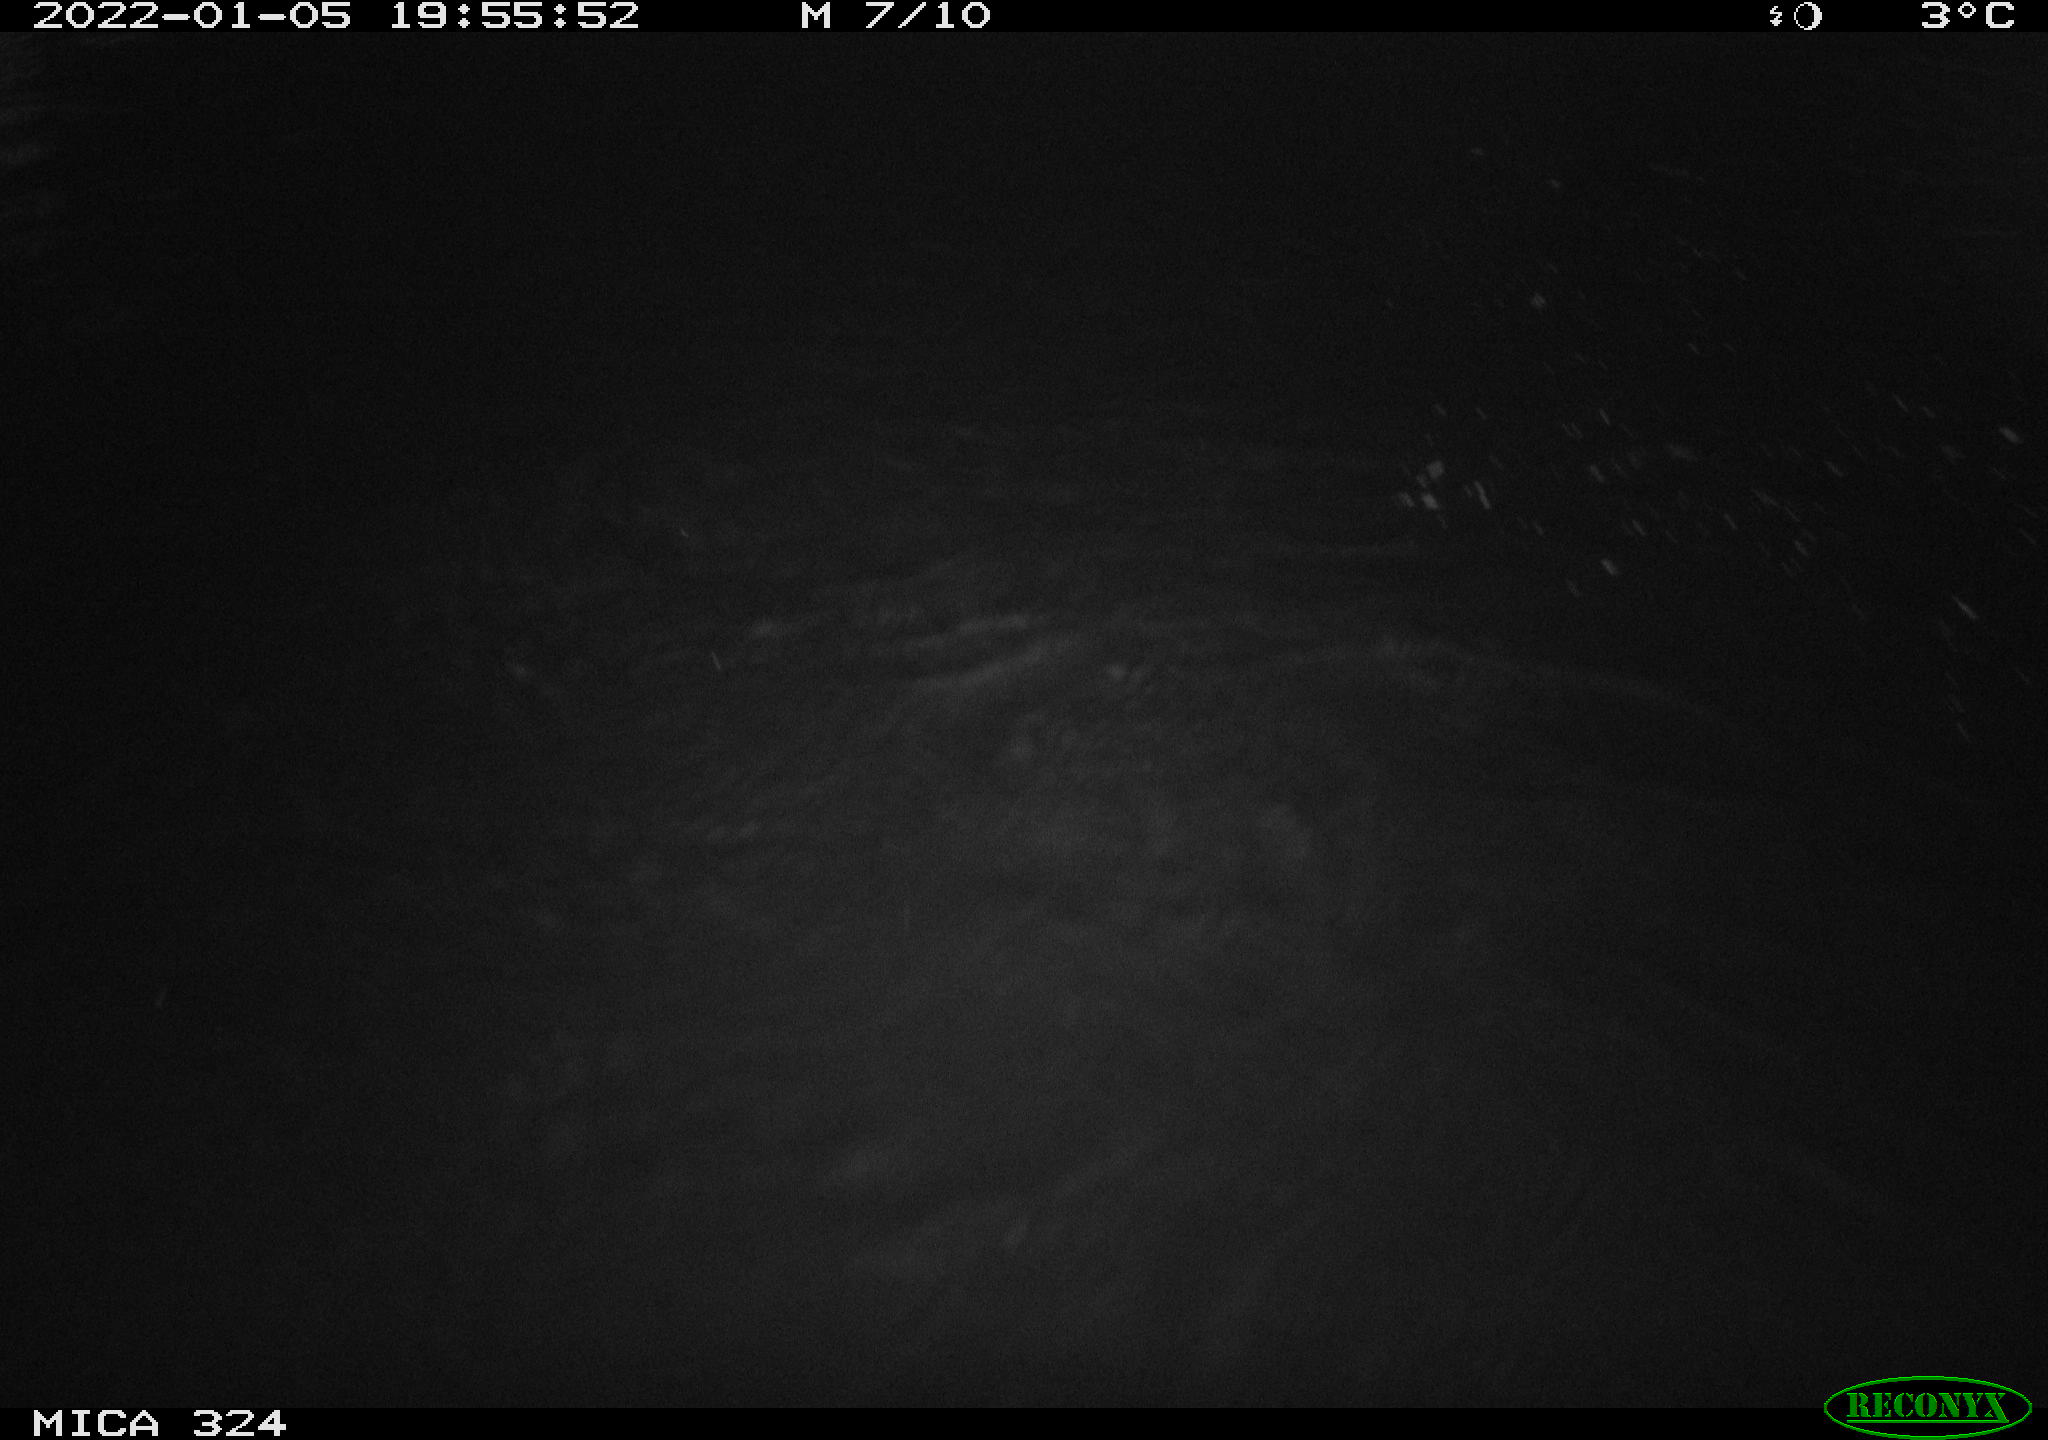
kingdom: Animalia
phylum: Chordata
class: Mammalia
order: Rodentia
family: Cricetidae
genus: Ondatra
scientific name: Ondatra zibethicus
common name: Muskrat
